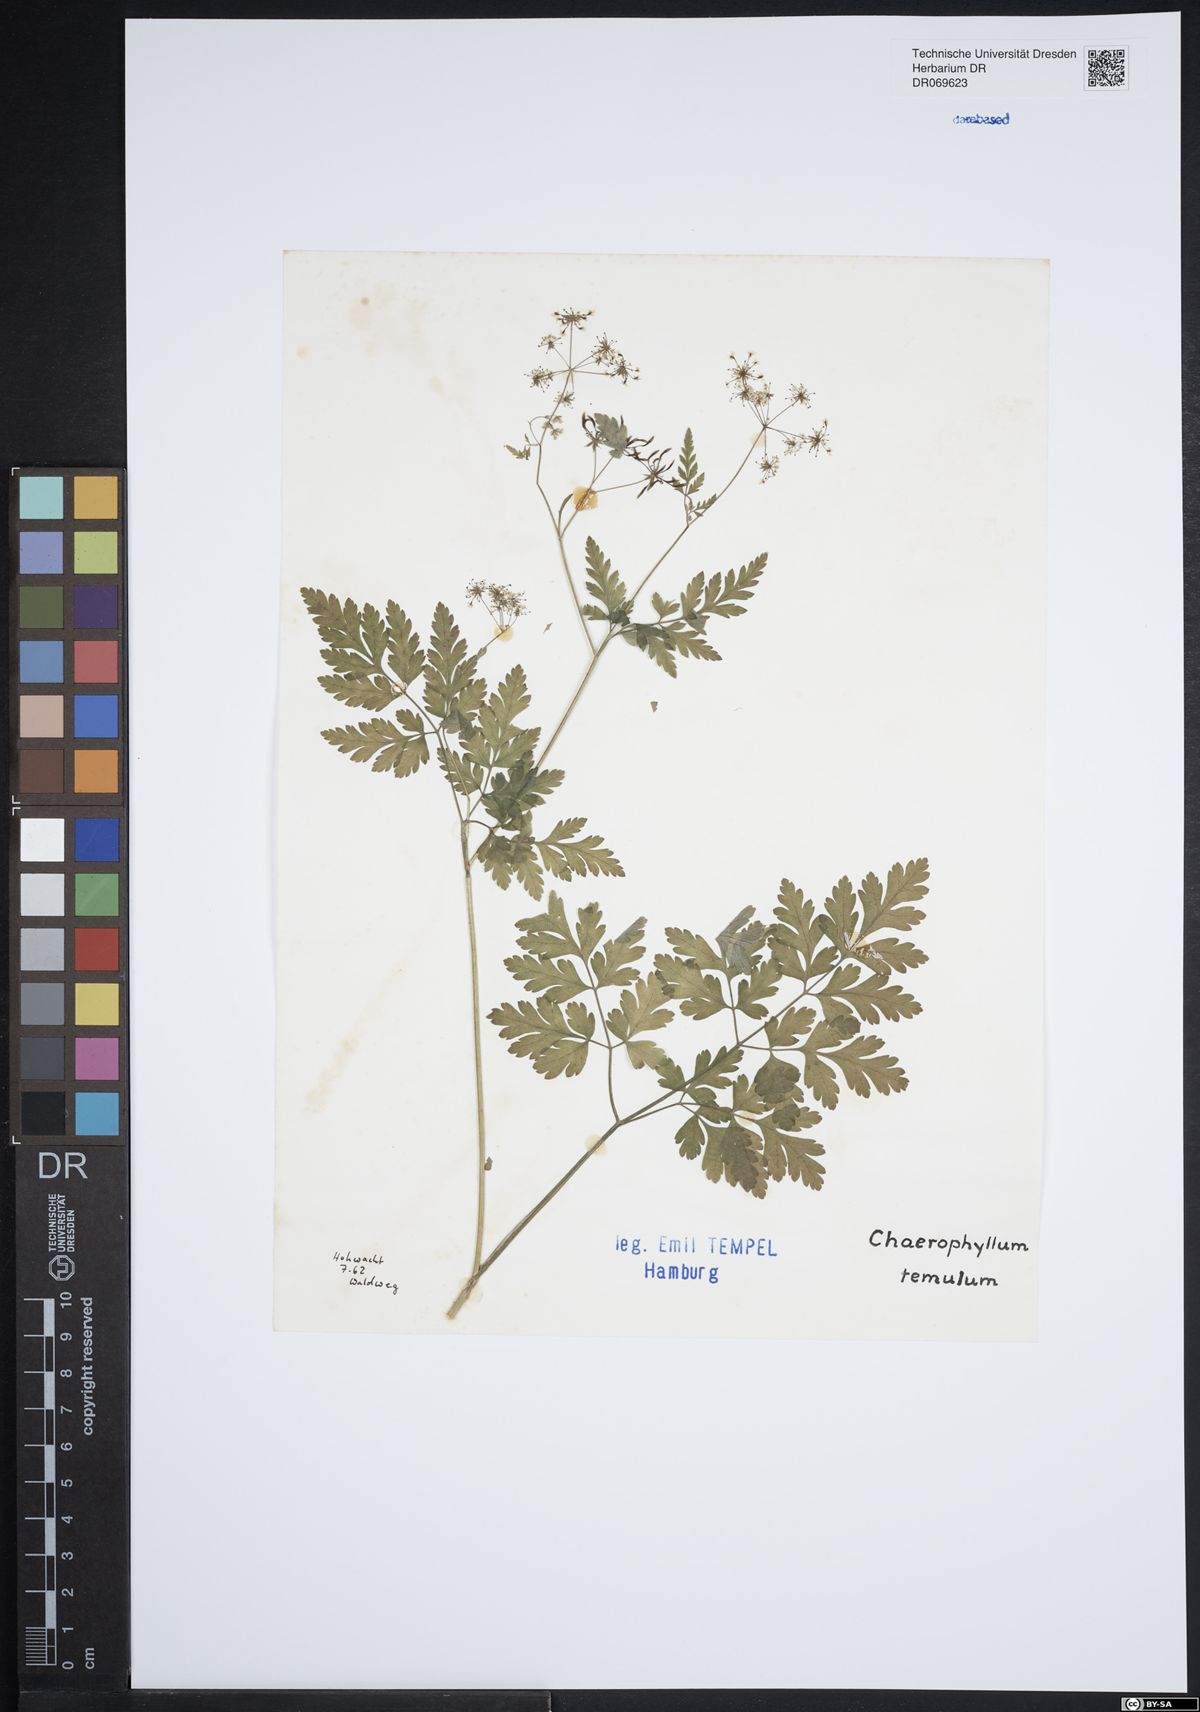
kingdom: Plantae
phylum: Tracheophyta
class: Magnoliopsida
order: Apiales
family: Apiaceae
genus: Chaerophyllum
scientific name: Chaerophyllum temulum
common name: Rough chervil
